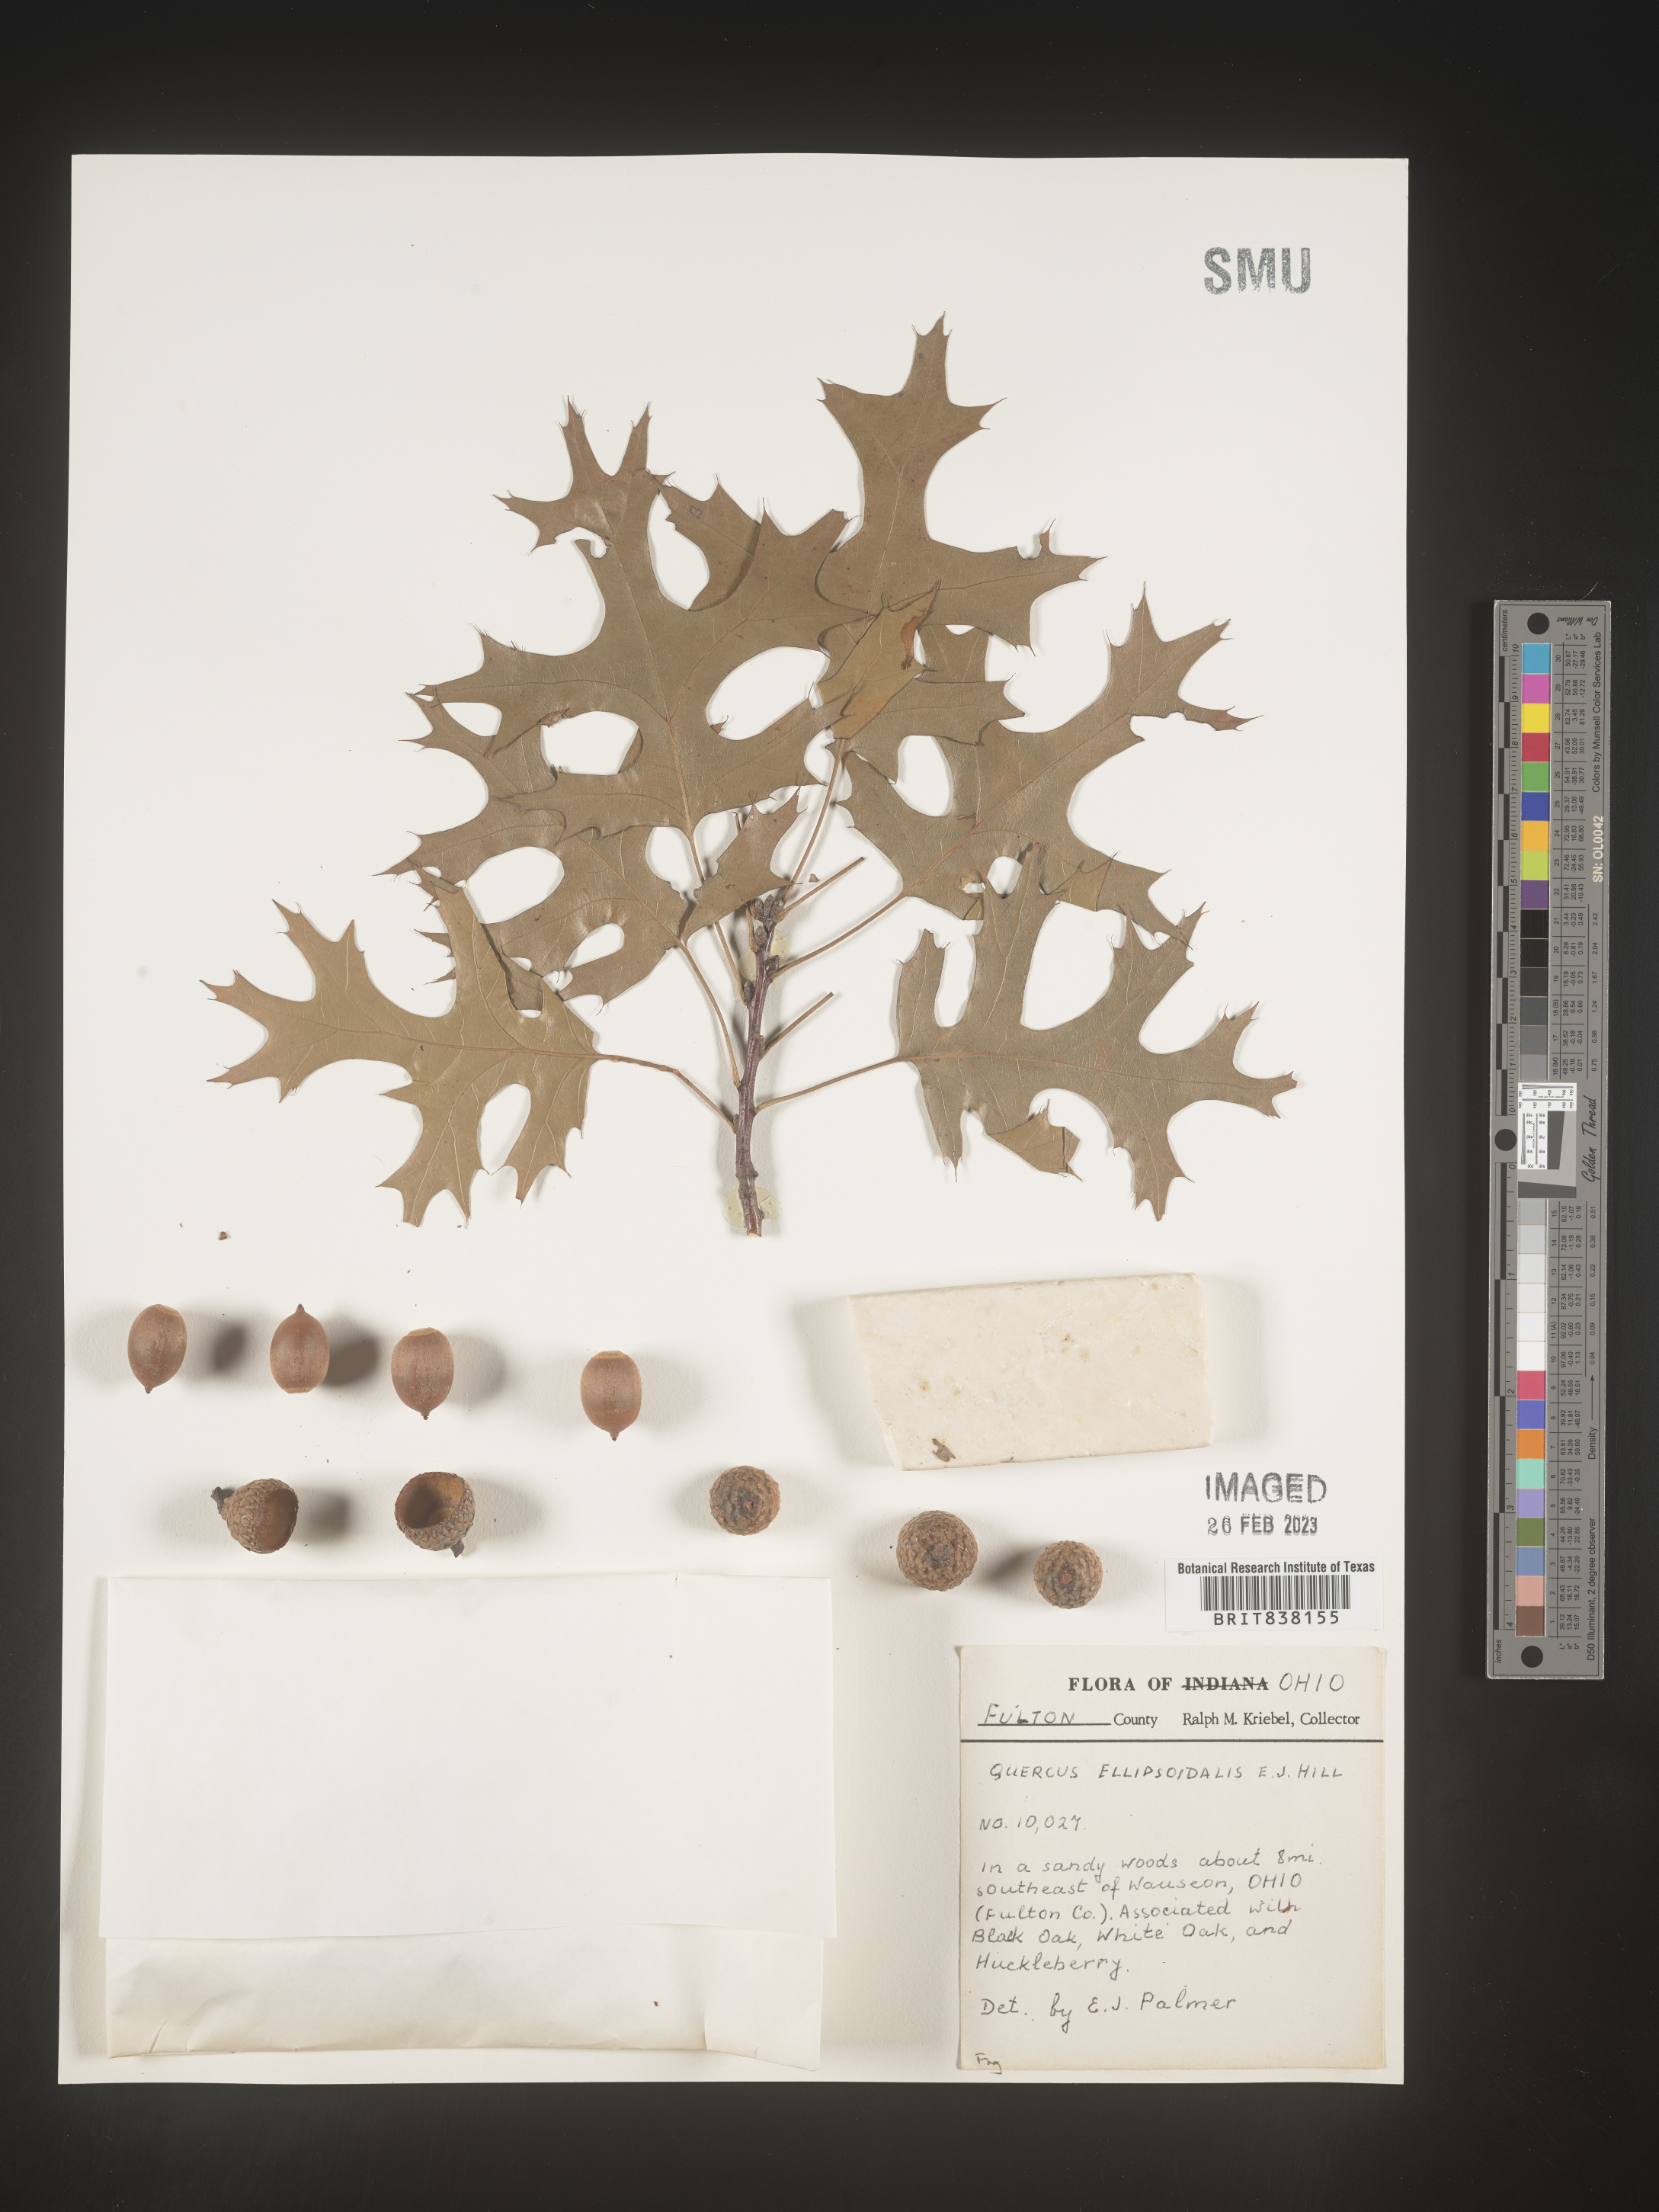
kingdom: Plantae
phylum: Tracheophyta
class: Magnoliopsida
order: Fagales
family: Fagaceae
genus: Quercus
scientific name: Quercus ellipsoidalis
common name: Hill's oak
